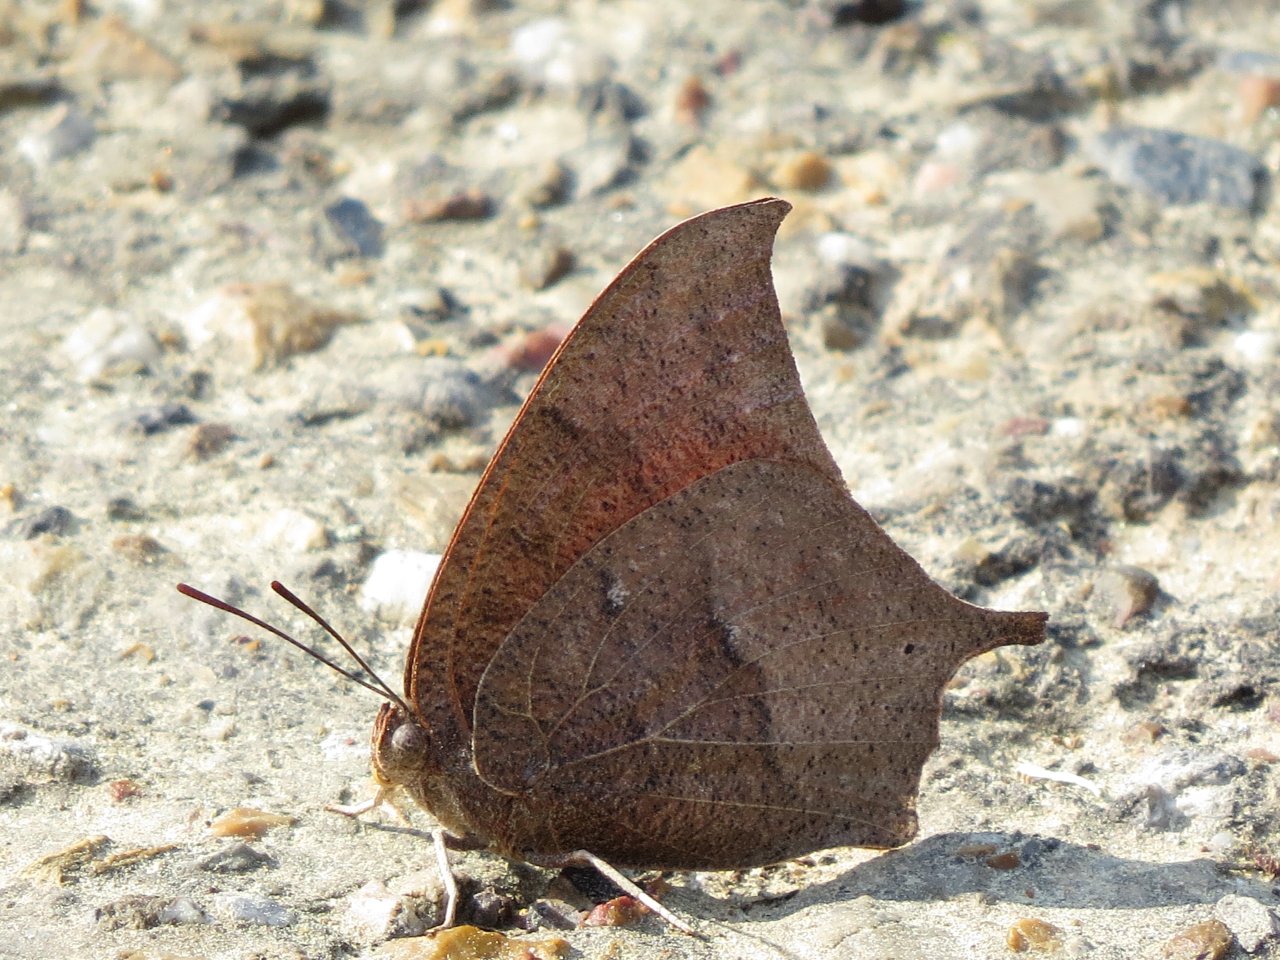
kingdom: Animalia
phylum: Arthropoda
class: Insecta
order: Lepidoptera
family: Nymphalidae
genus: Anaea
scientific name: Anaea andria
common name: Goatweed Leafwing
